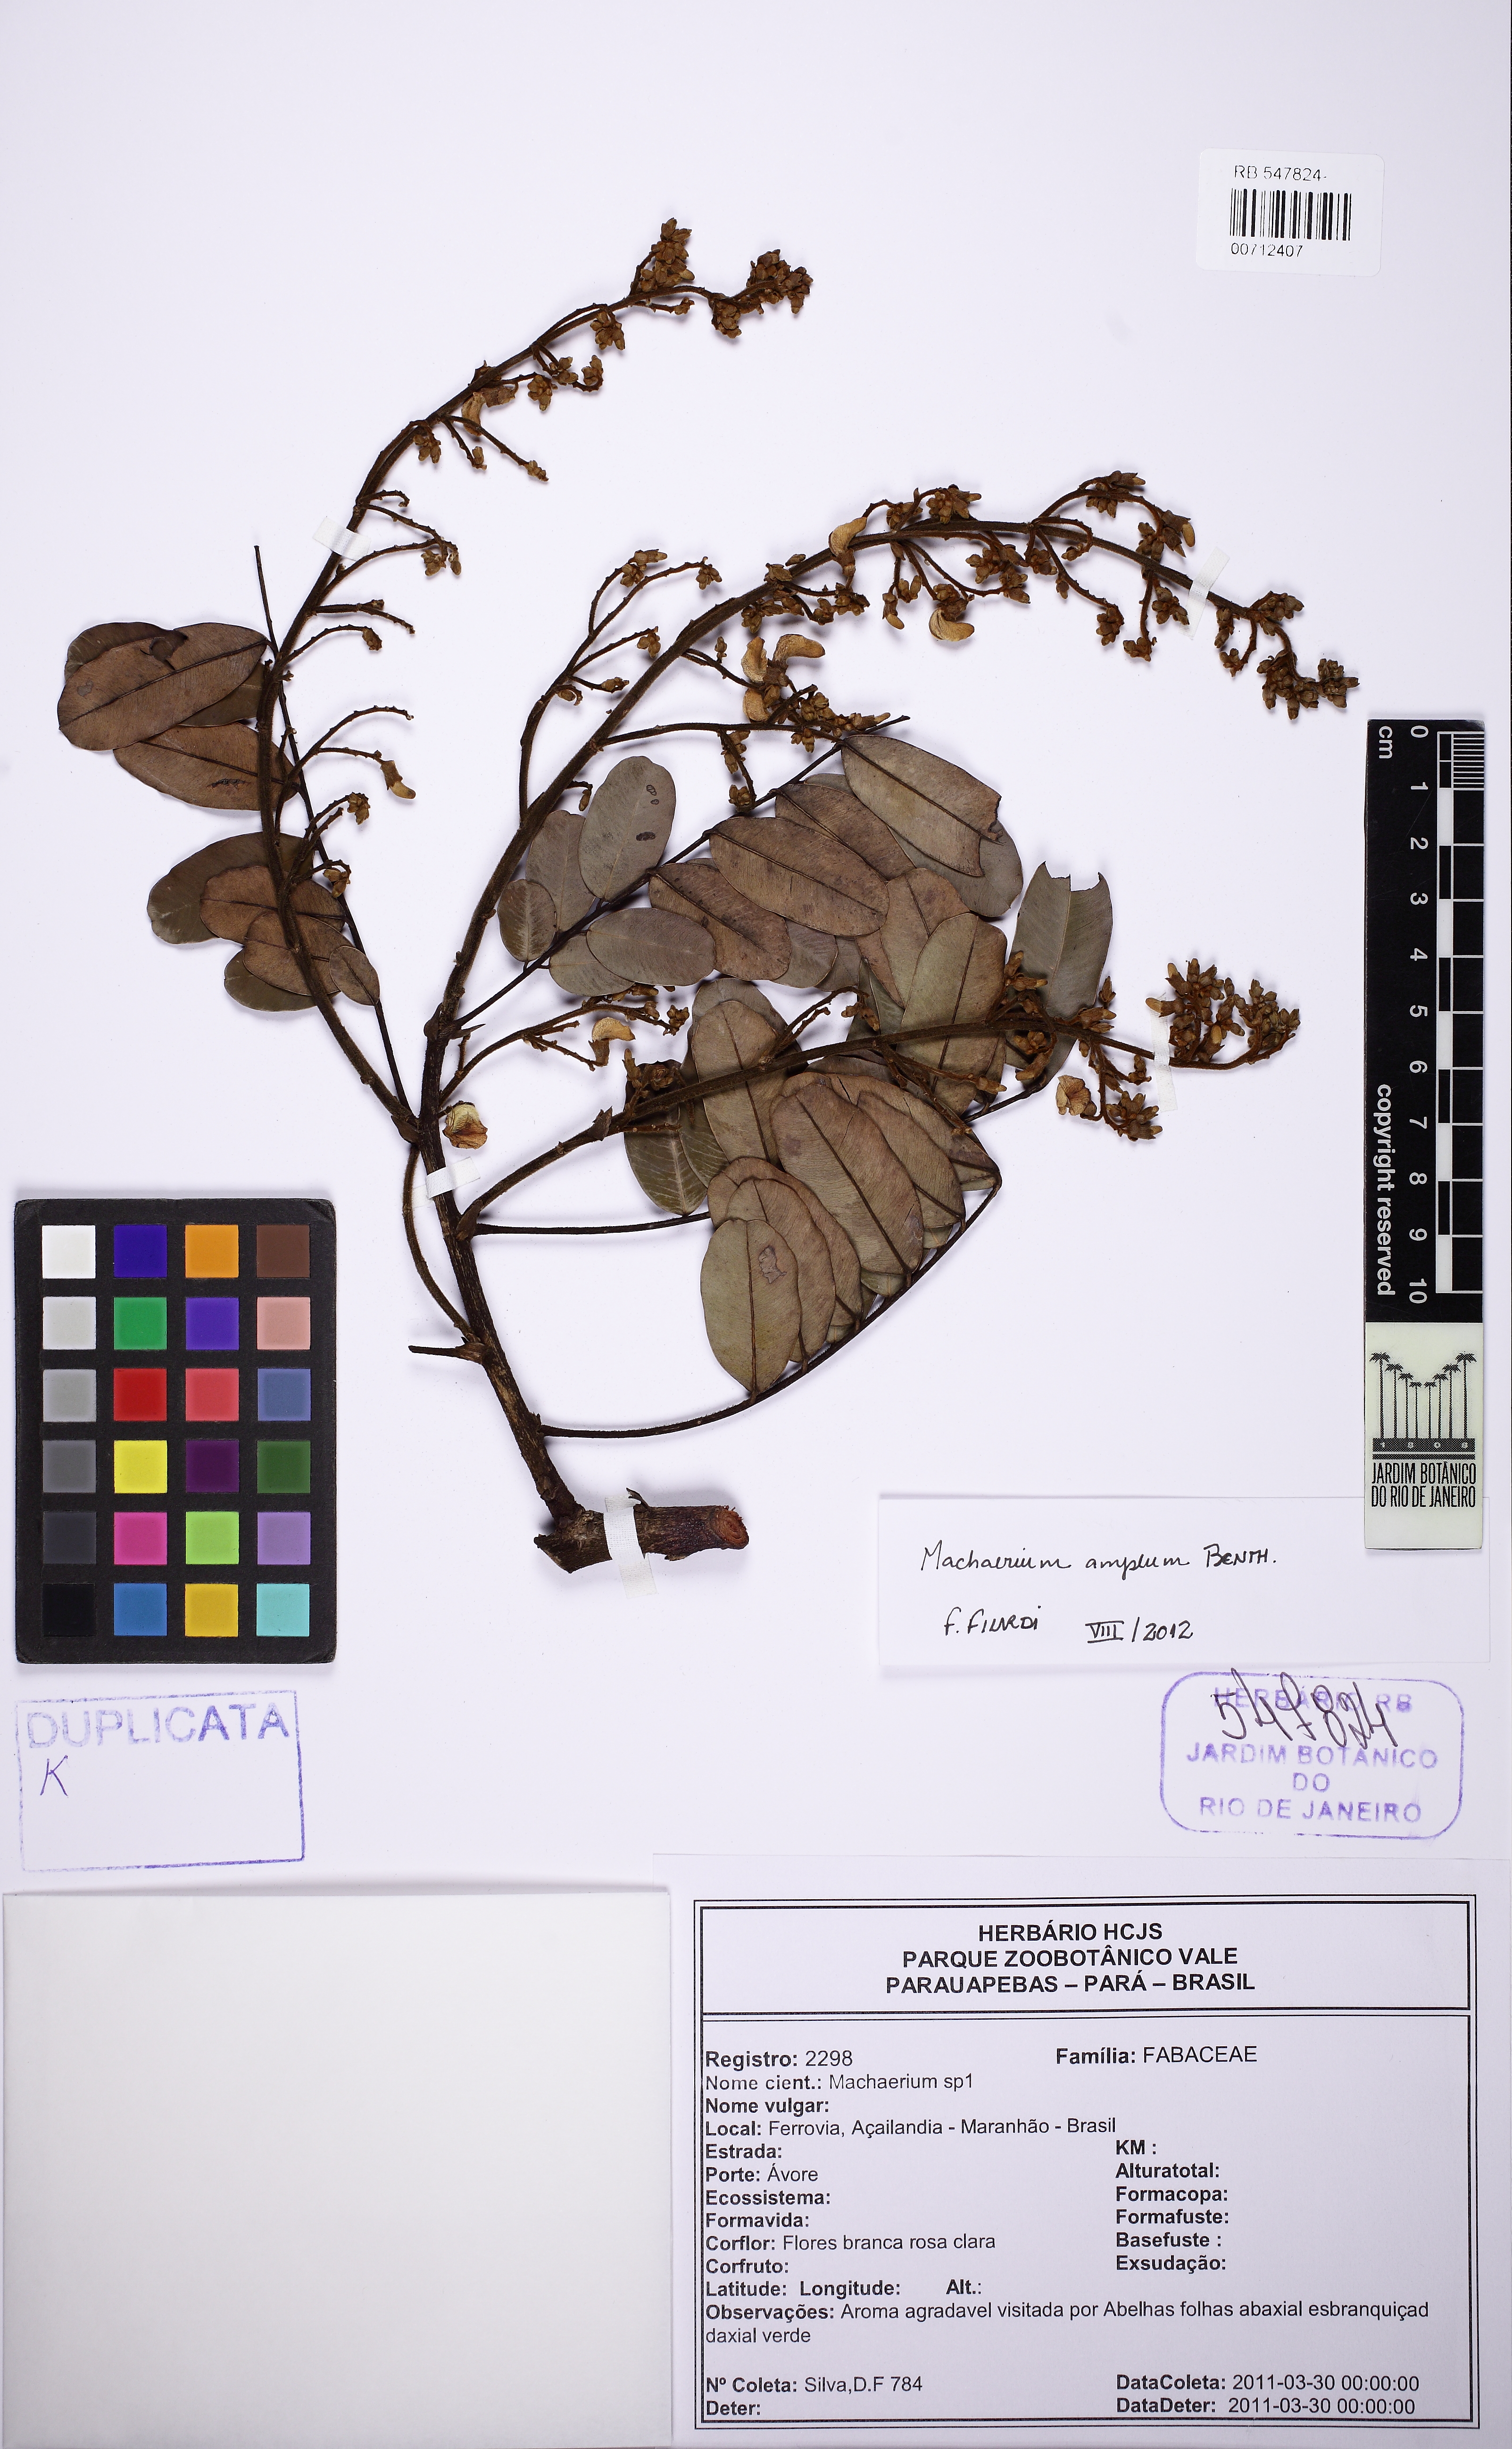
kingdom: Plantae
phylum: Tracheophyta
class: Magnoliopsida
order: Fabales
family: Fabaceae
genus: Machaerium
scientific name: Machaerium amplum
